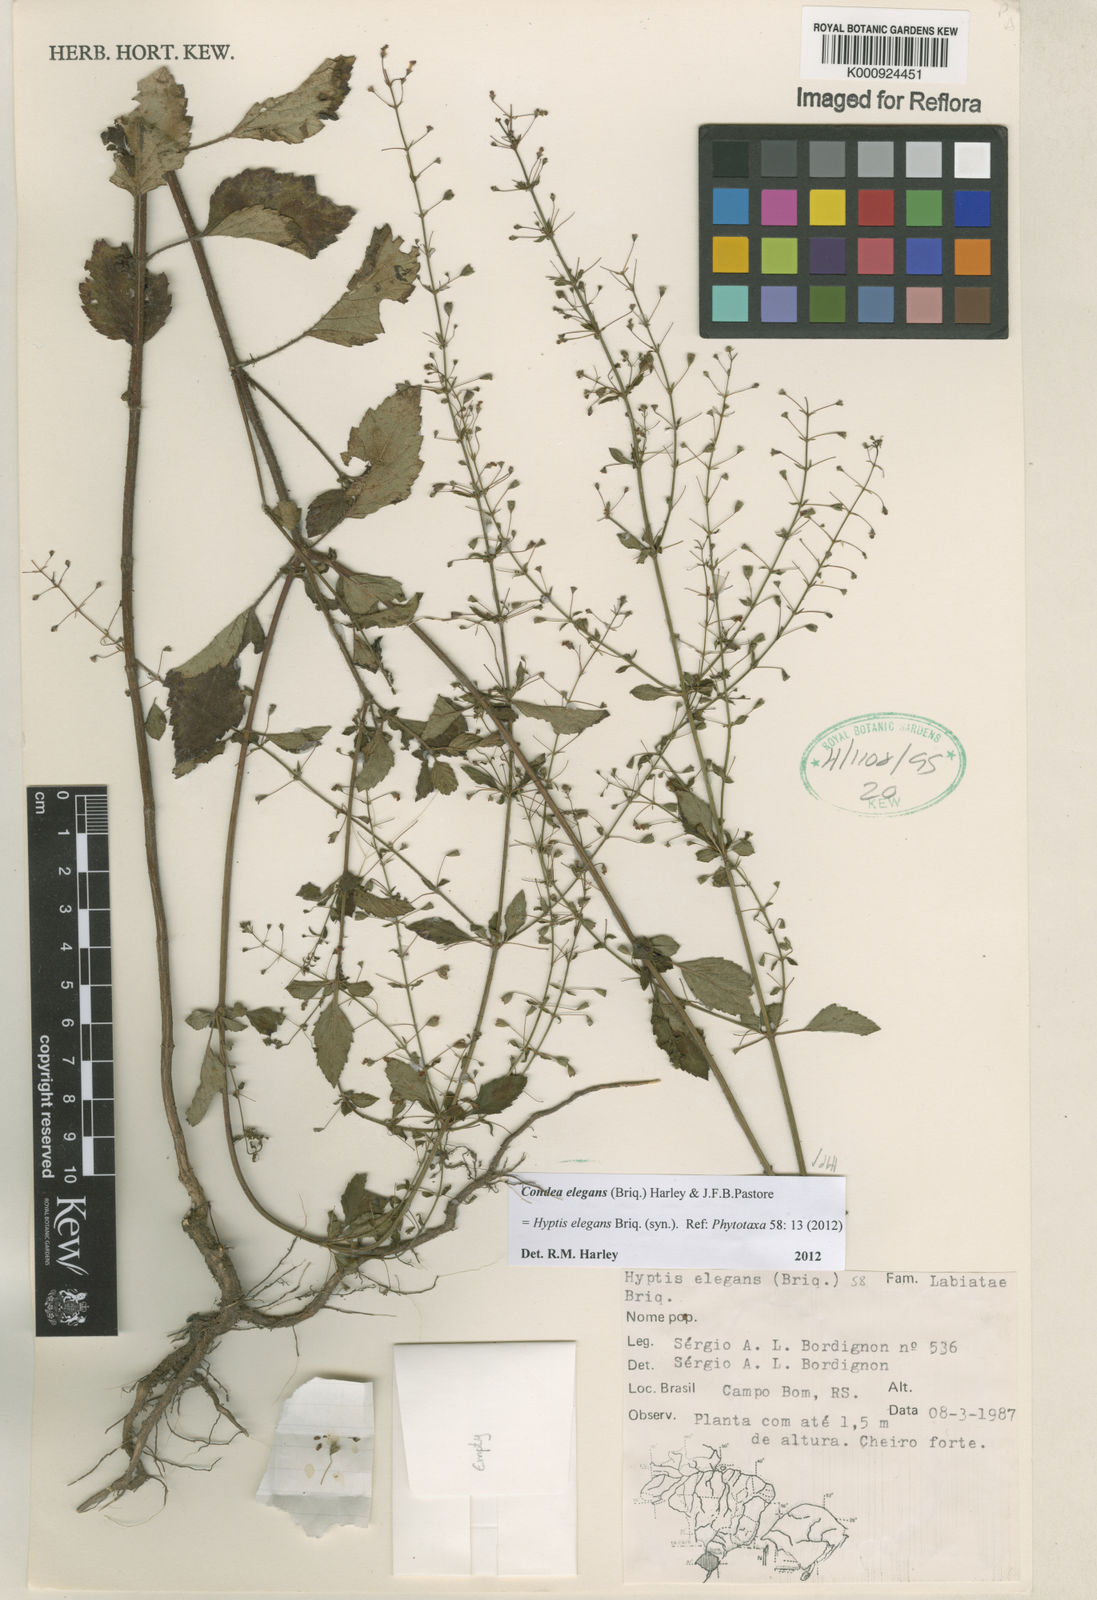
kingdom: Plantae
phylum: Tracheophyta
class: Magnoliopsida
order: Lamiales
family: Lamiaceae
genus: Condea
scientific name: Condea elegans
